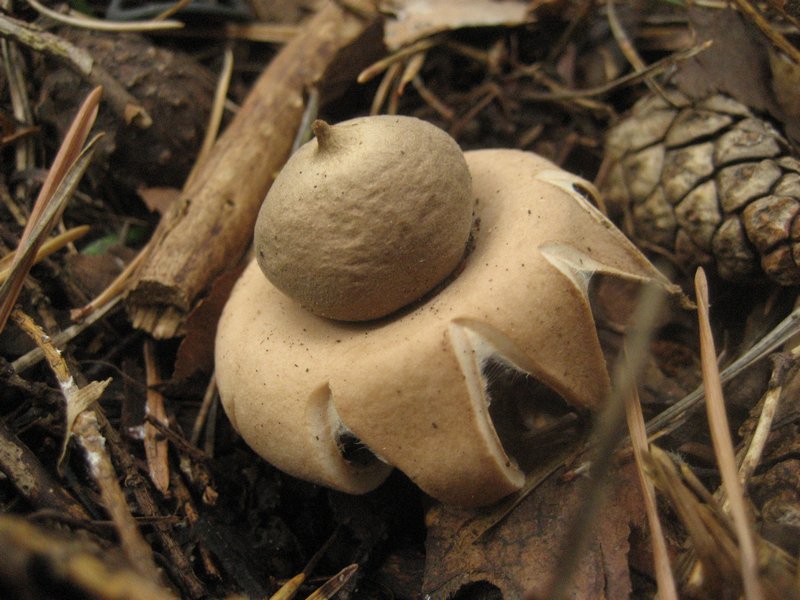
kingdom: Fungi
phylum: Basidiomycota
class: Agaricomycetes
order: Geastrales
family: Geastraceae
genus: Geastrum
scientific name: Geastrum fimbriatum
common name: frynset stjernebold
